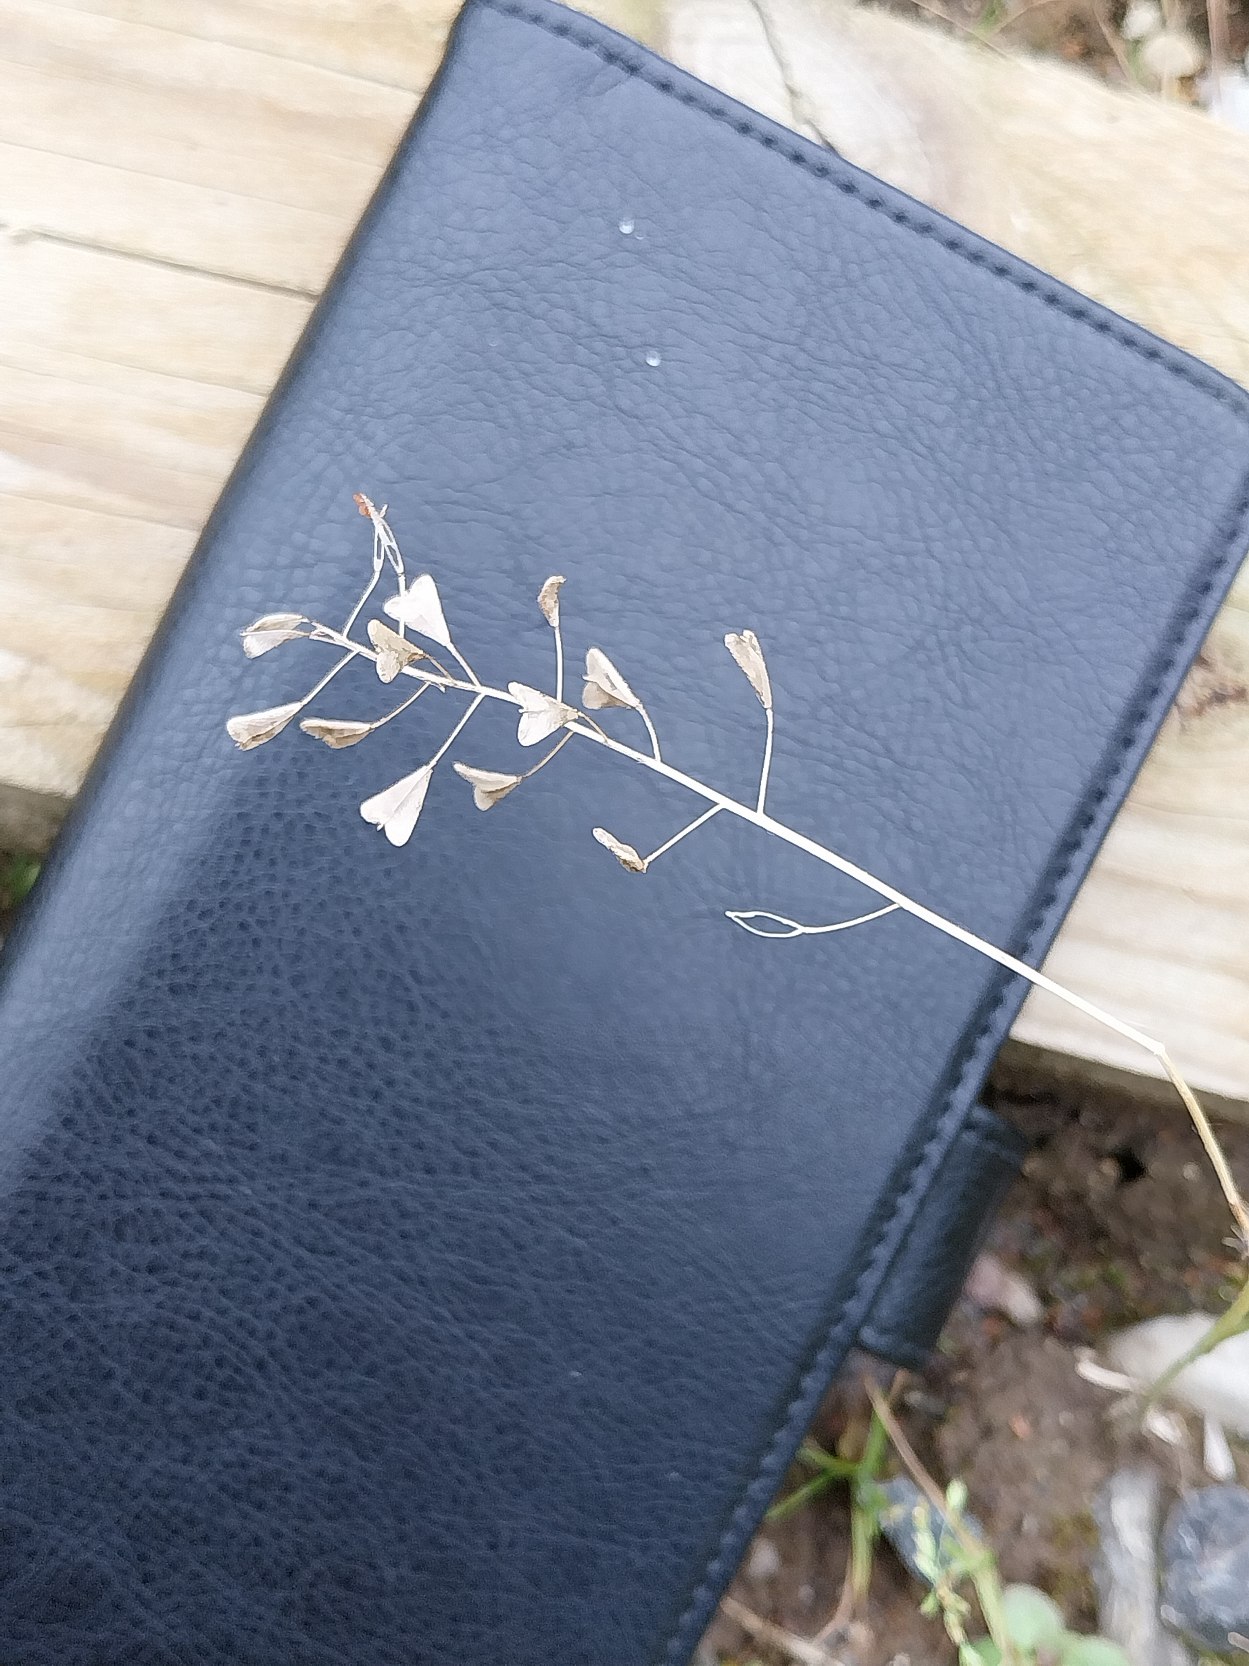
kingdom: Plantae
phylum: Tracheophyta
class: Magnoliopsida
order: Brassicales
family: Brassicaceae
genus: Capsella
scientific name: Capsella bursa-pastoris
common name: Hyrdetaske
